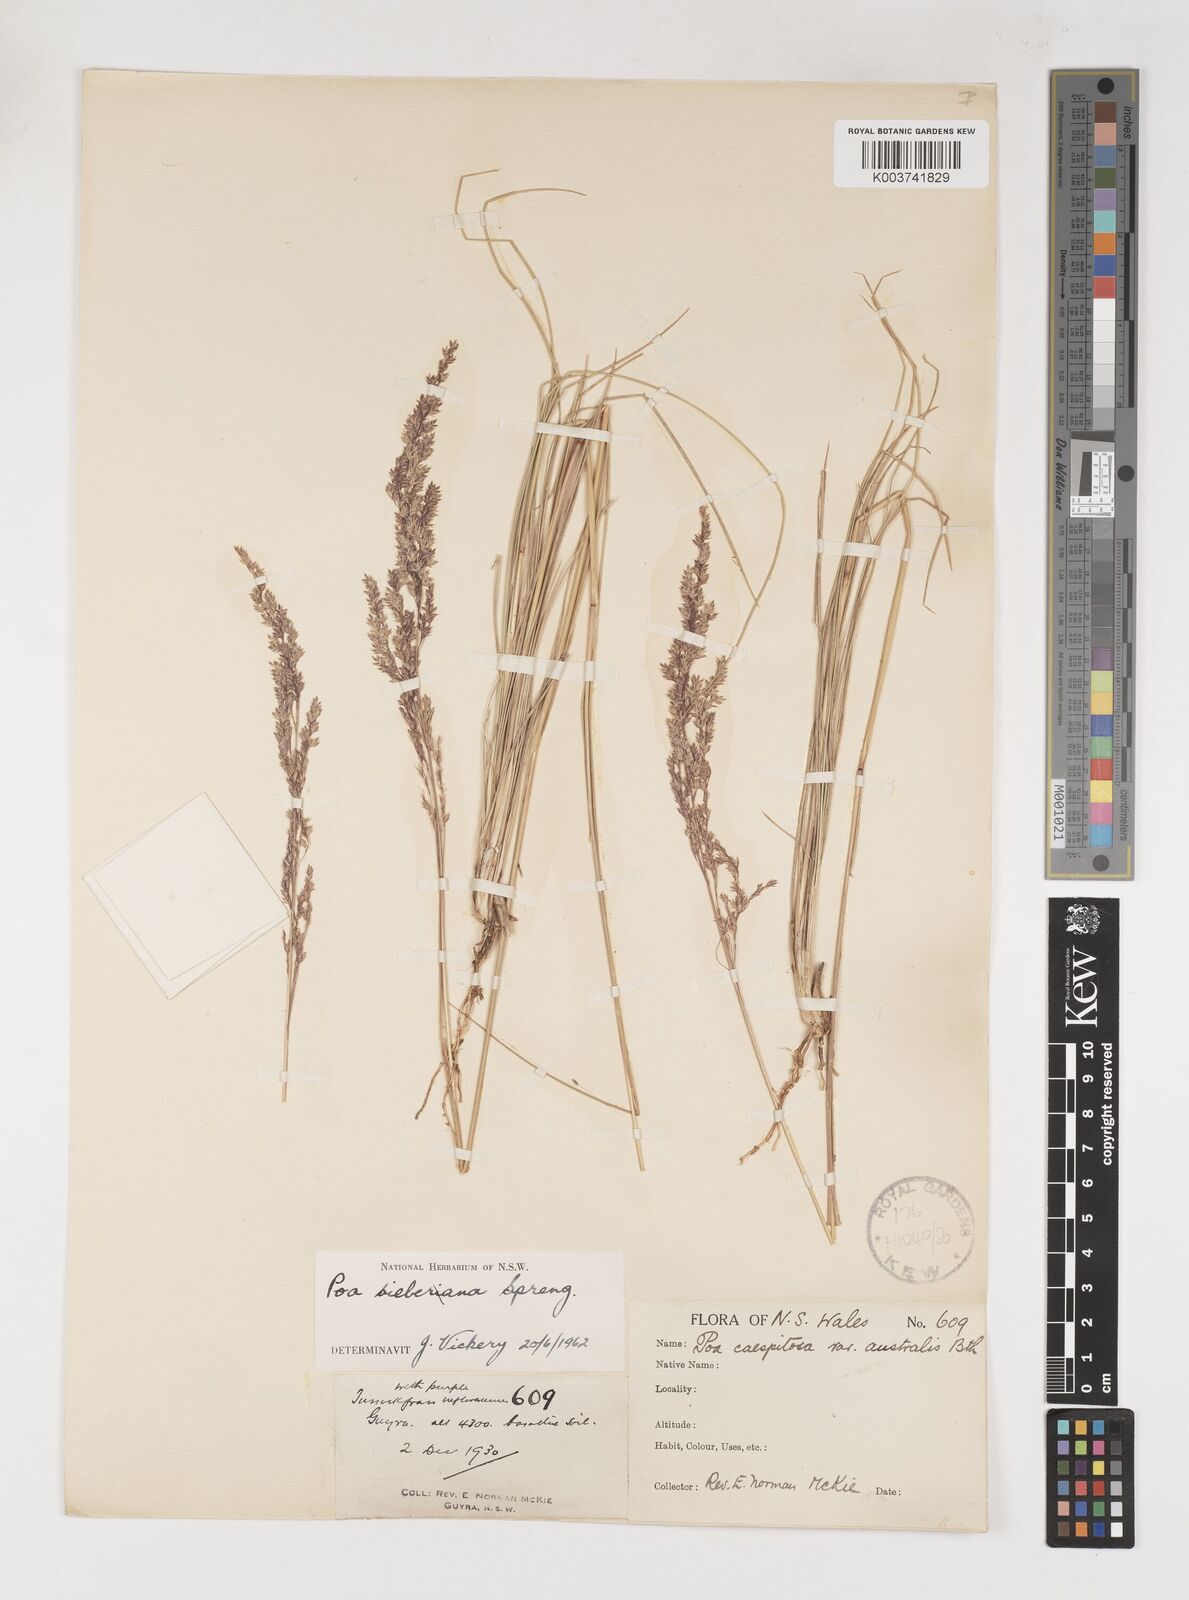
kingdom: Plantae
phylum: Tracheophyta
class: Liliopsida
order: Poales
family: Poaceae
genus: Poa
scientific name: Poa sieberiana
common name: Tussock poa
